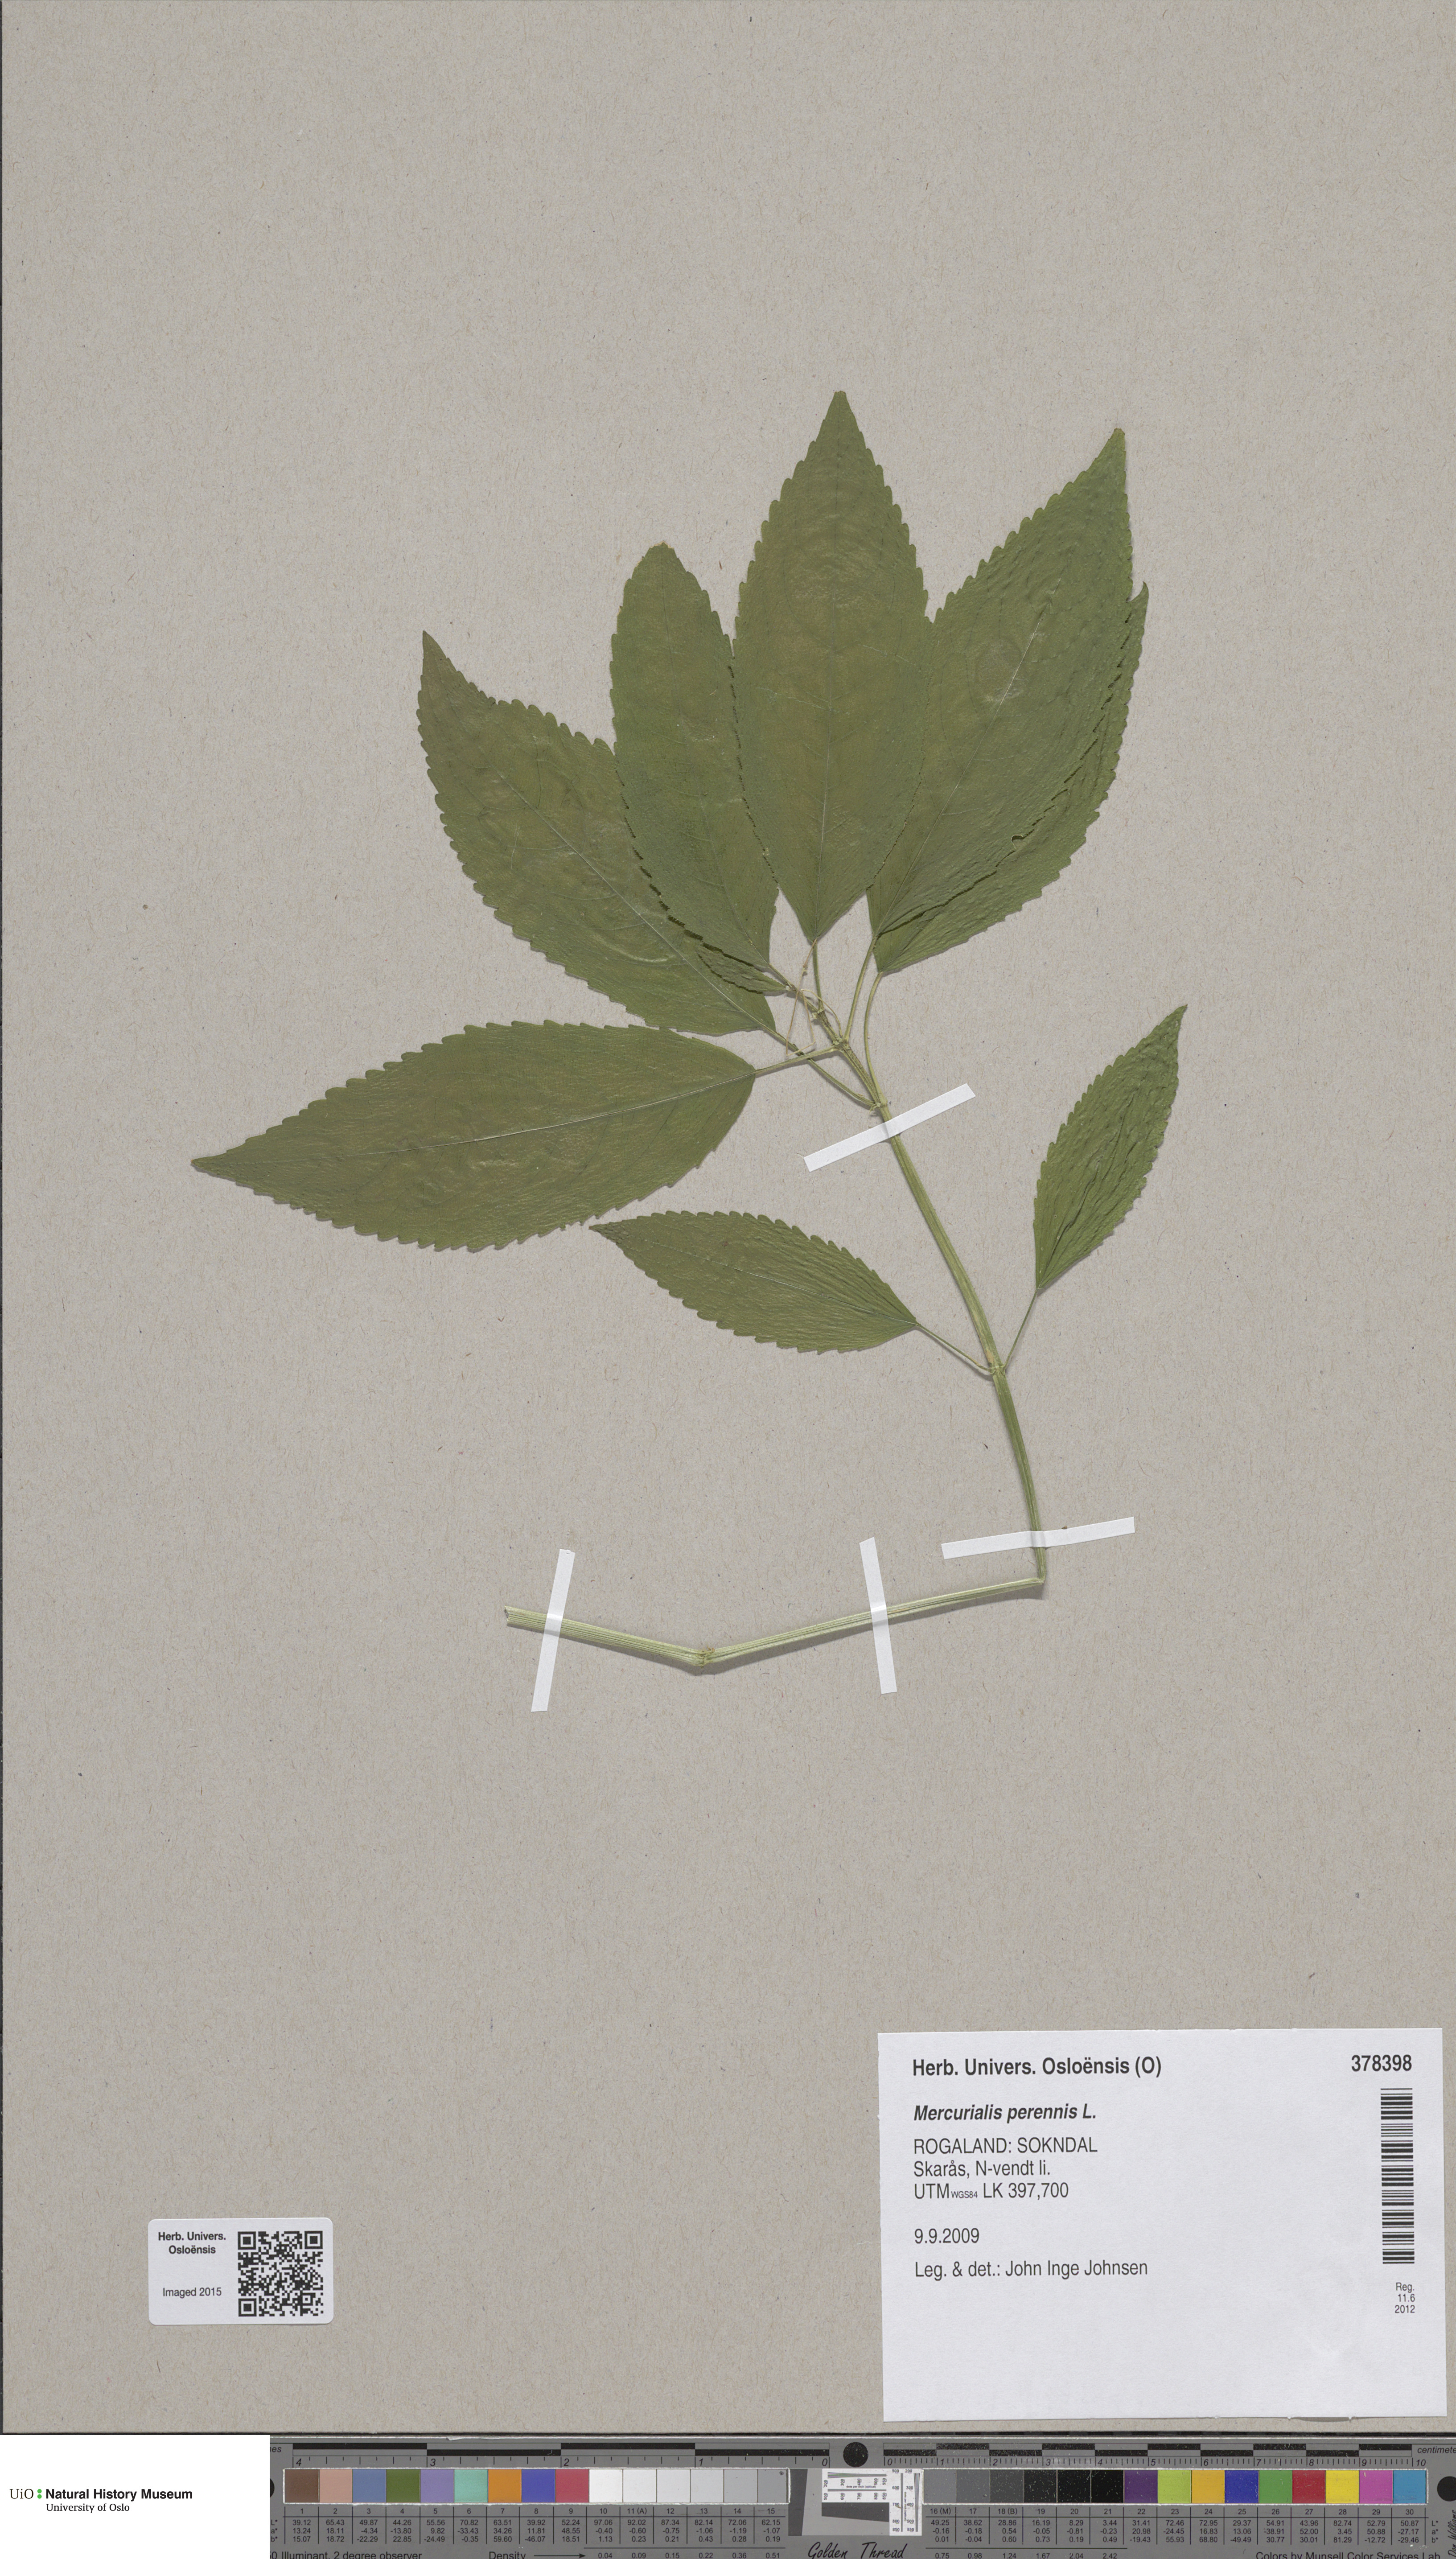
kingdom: Plantae
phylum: Tracheophyta
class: Magnoliopsida
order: Malpighiales
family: Euphorbiaceae
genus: Mercurialis
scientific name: Mercurialis perennis
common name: Dog mercury
